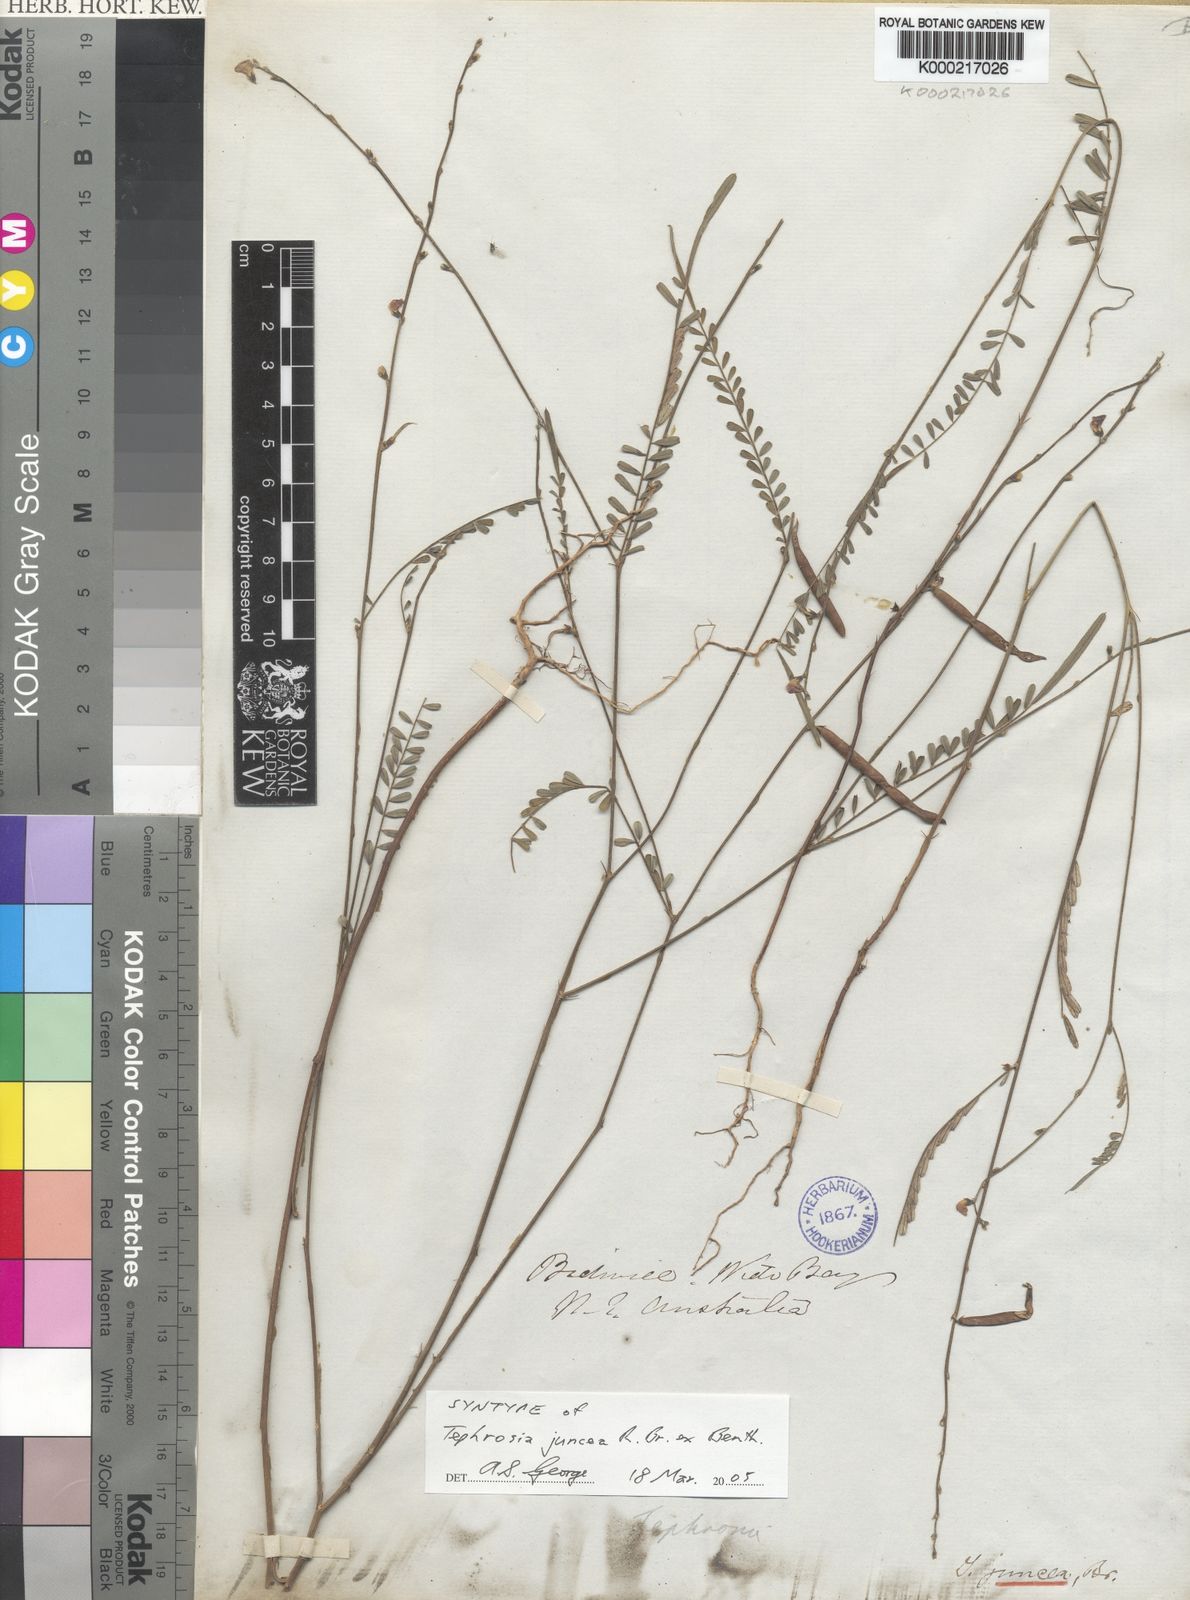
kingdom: Plantae
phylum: Tracheophyta
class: Magnoliopsida
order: Fabales
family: Fabaceae
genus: Tephrosia
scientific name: Tephrosia juncea
